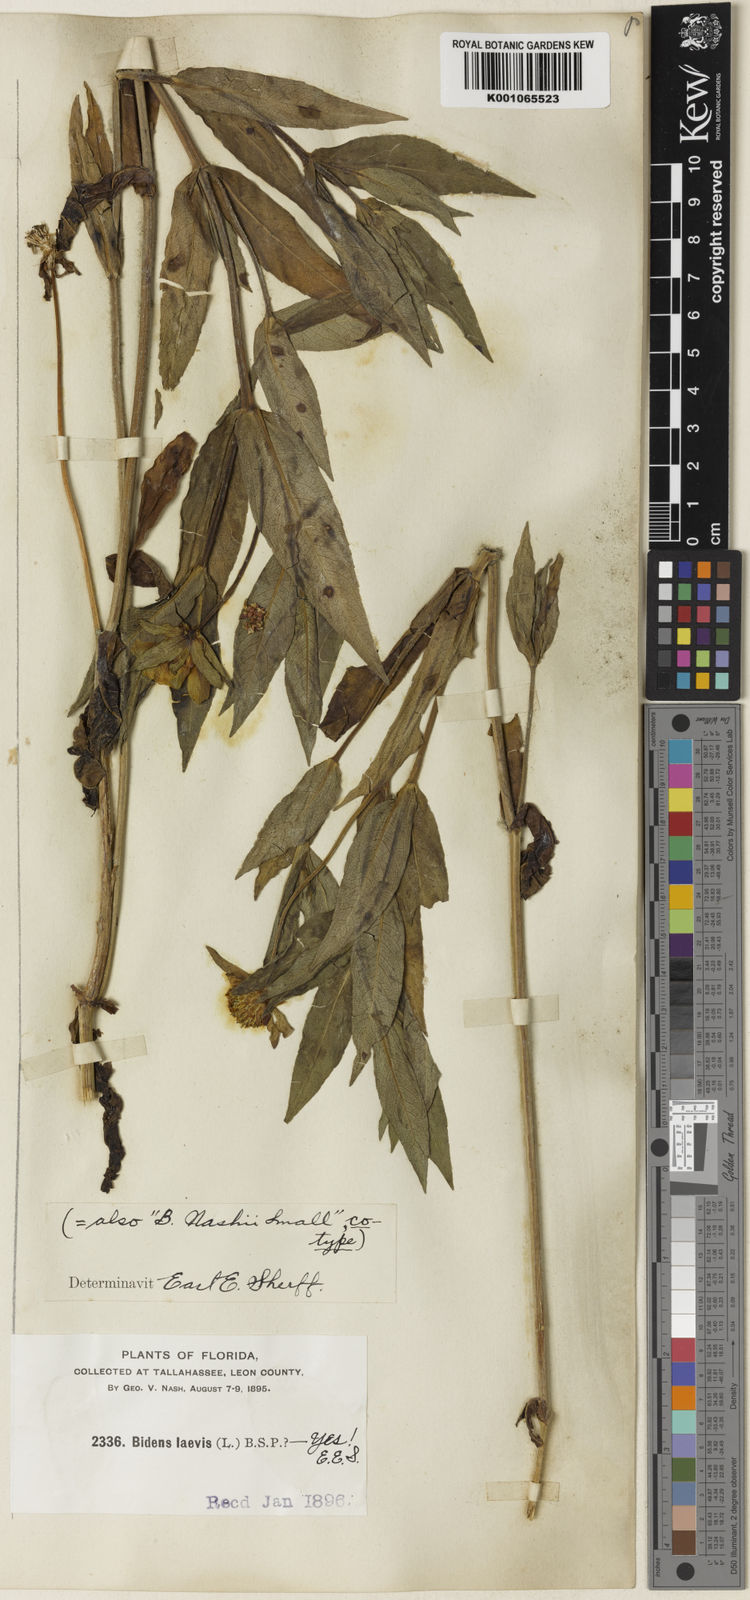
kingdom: Plantae
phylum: Tracheophyta
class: Magnoliopsida
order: Asterales
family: Asteraceae
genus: Bidens
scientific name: Bidens laevis
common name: Larger bur-marigold
